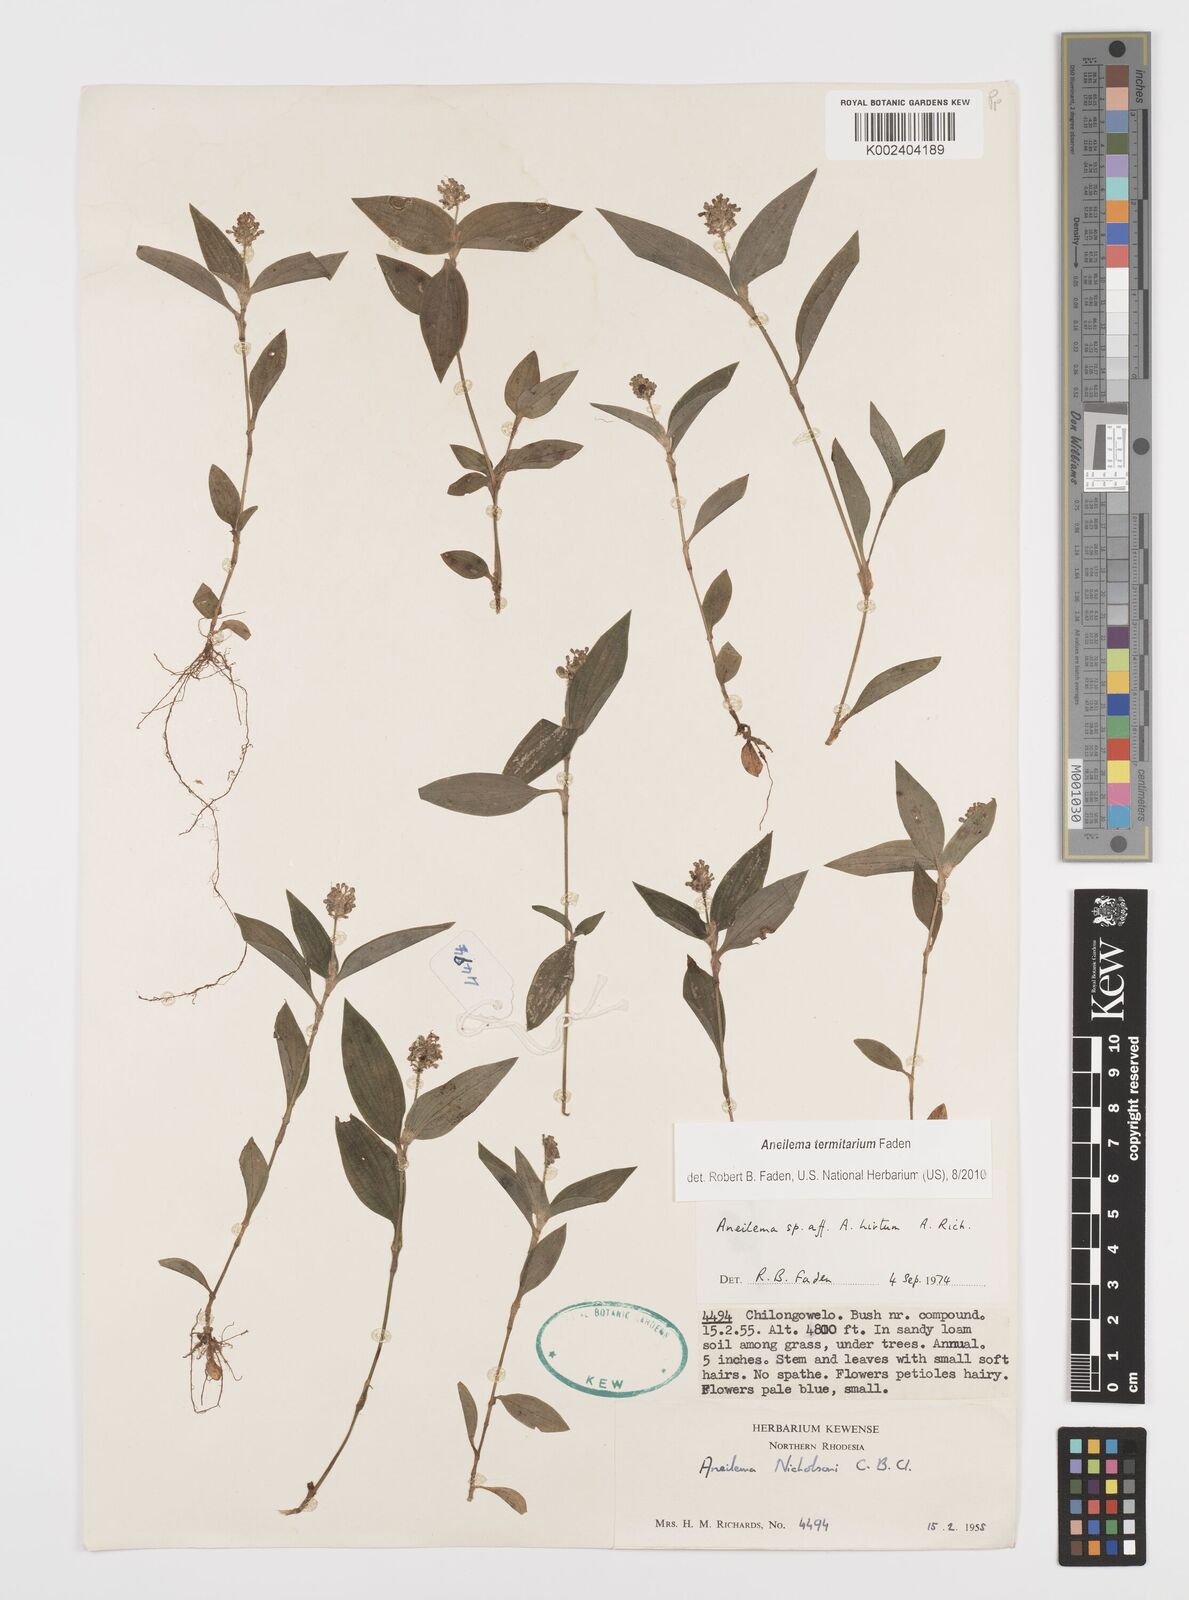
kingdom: Plantae
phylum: Tracheophyta
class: Liliopsida
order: Commelinales
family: Commelinaceae
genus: Aneilema
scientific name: Aneilema termitarium
